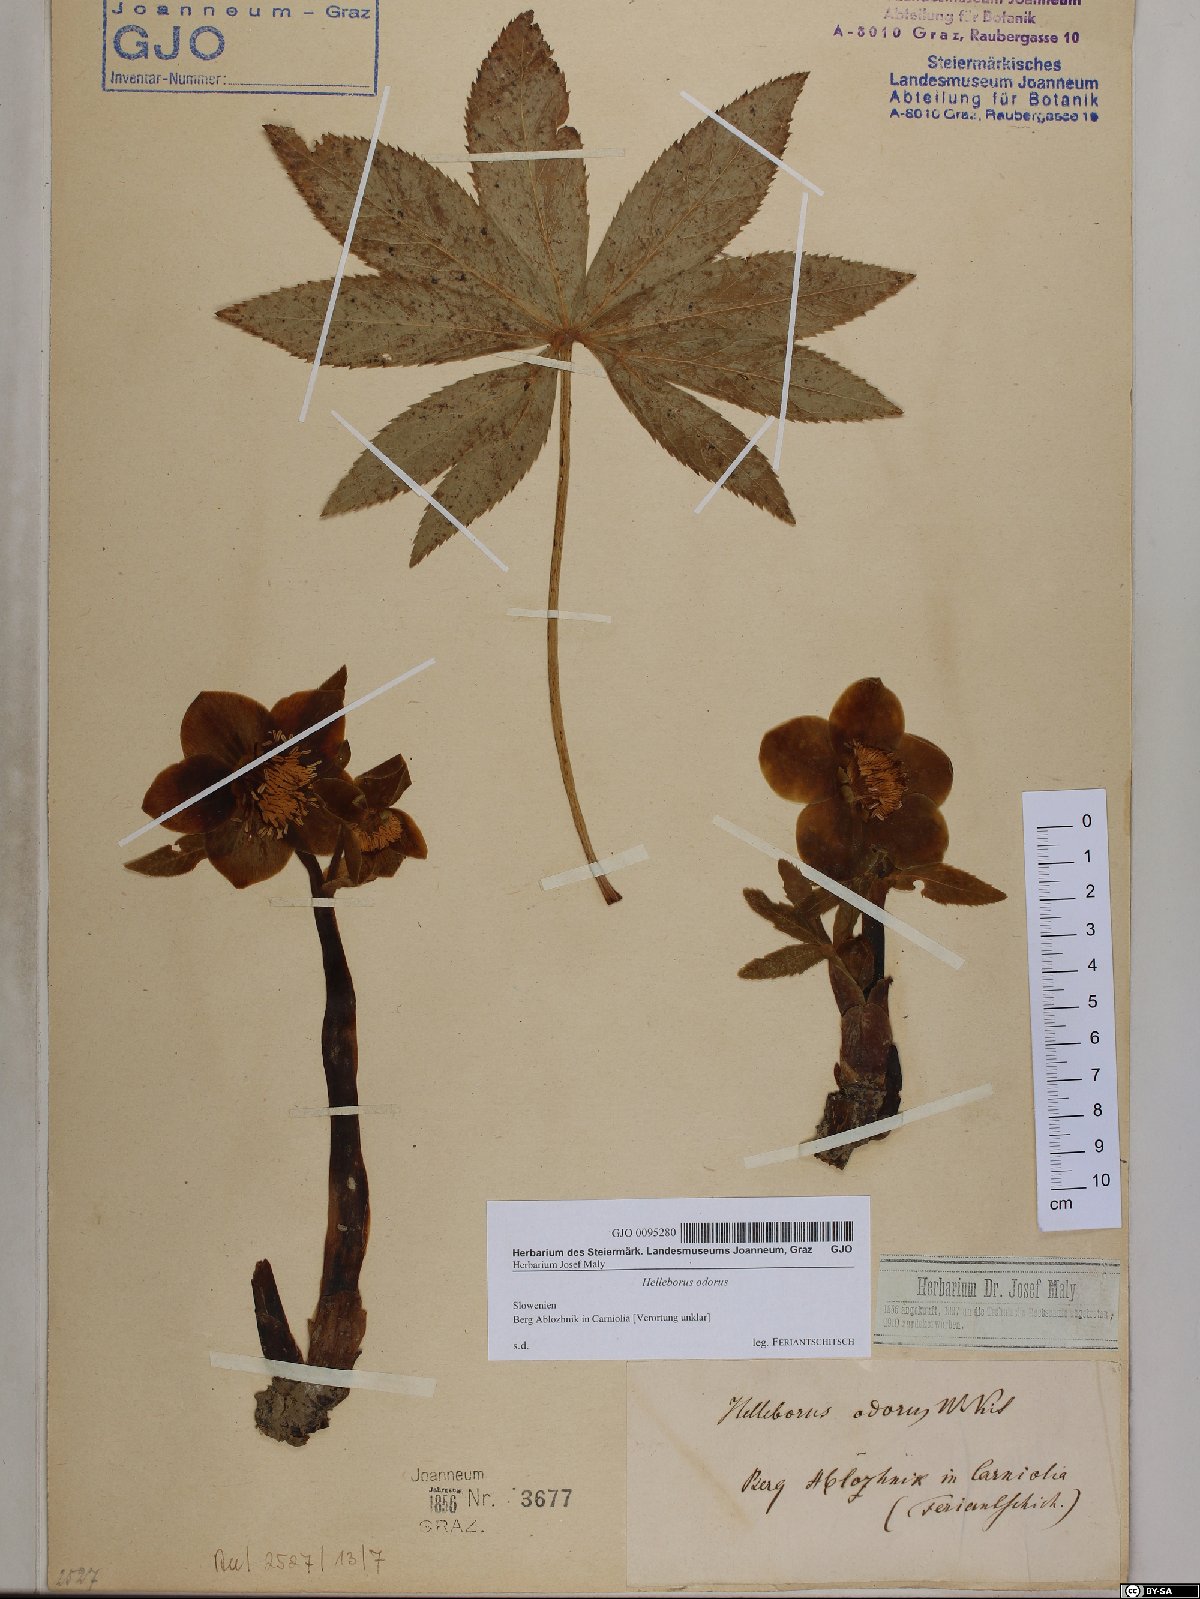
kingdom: Plantae
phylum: Tracheophyta
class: Magnoliopsida
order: Ranunculales
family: Ranunculaceae
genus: Helleborus
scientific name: Helleborus odorus
